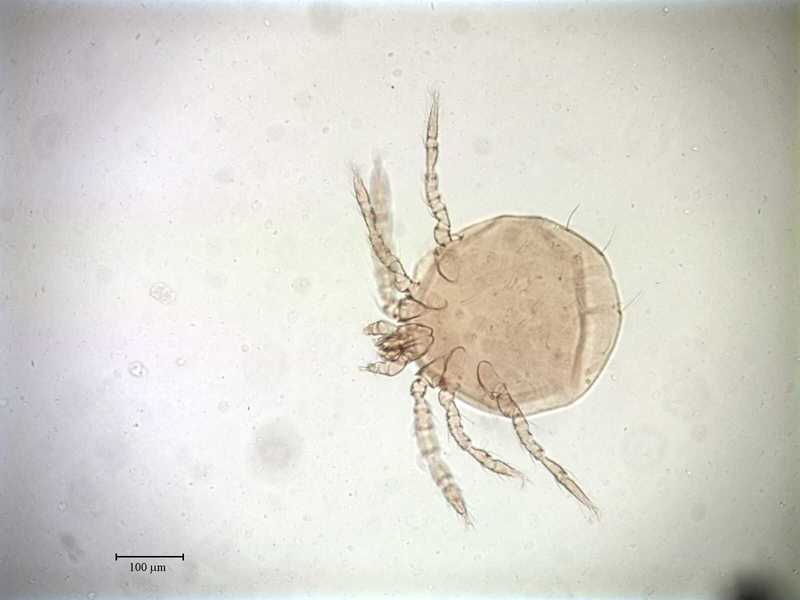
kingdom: Animalia
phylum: Arthropoda
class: Arachnida
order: Trombidiformes
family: Trombiculidae
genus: Eutrombicula
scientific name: Eutrombicula poppi
